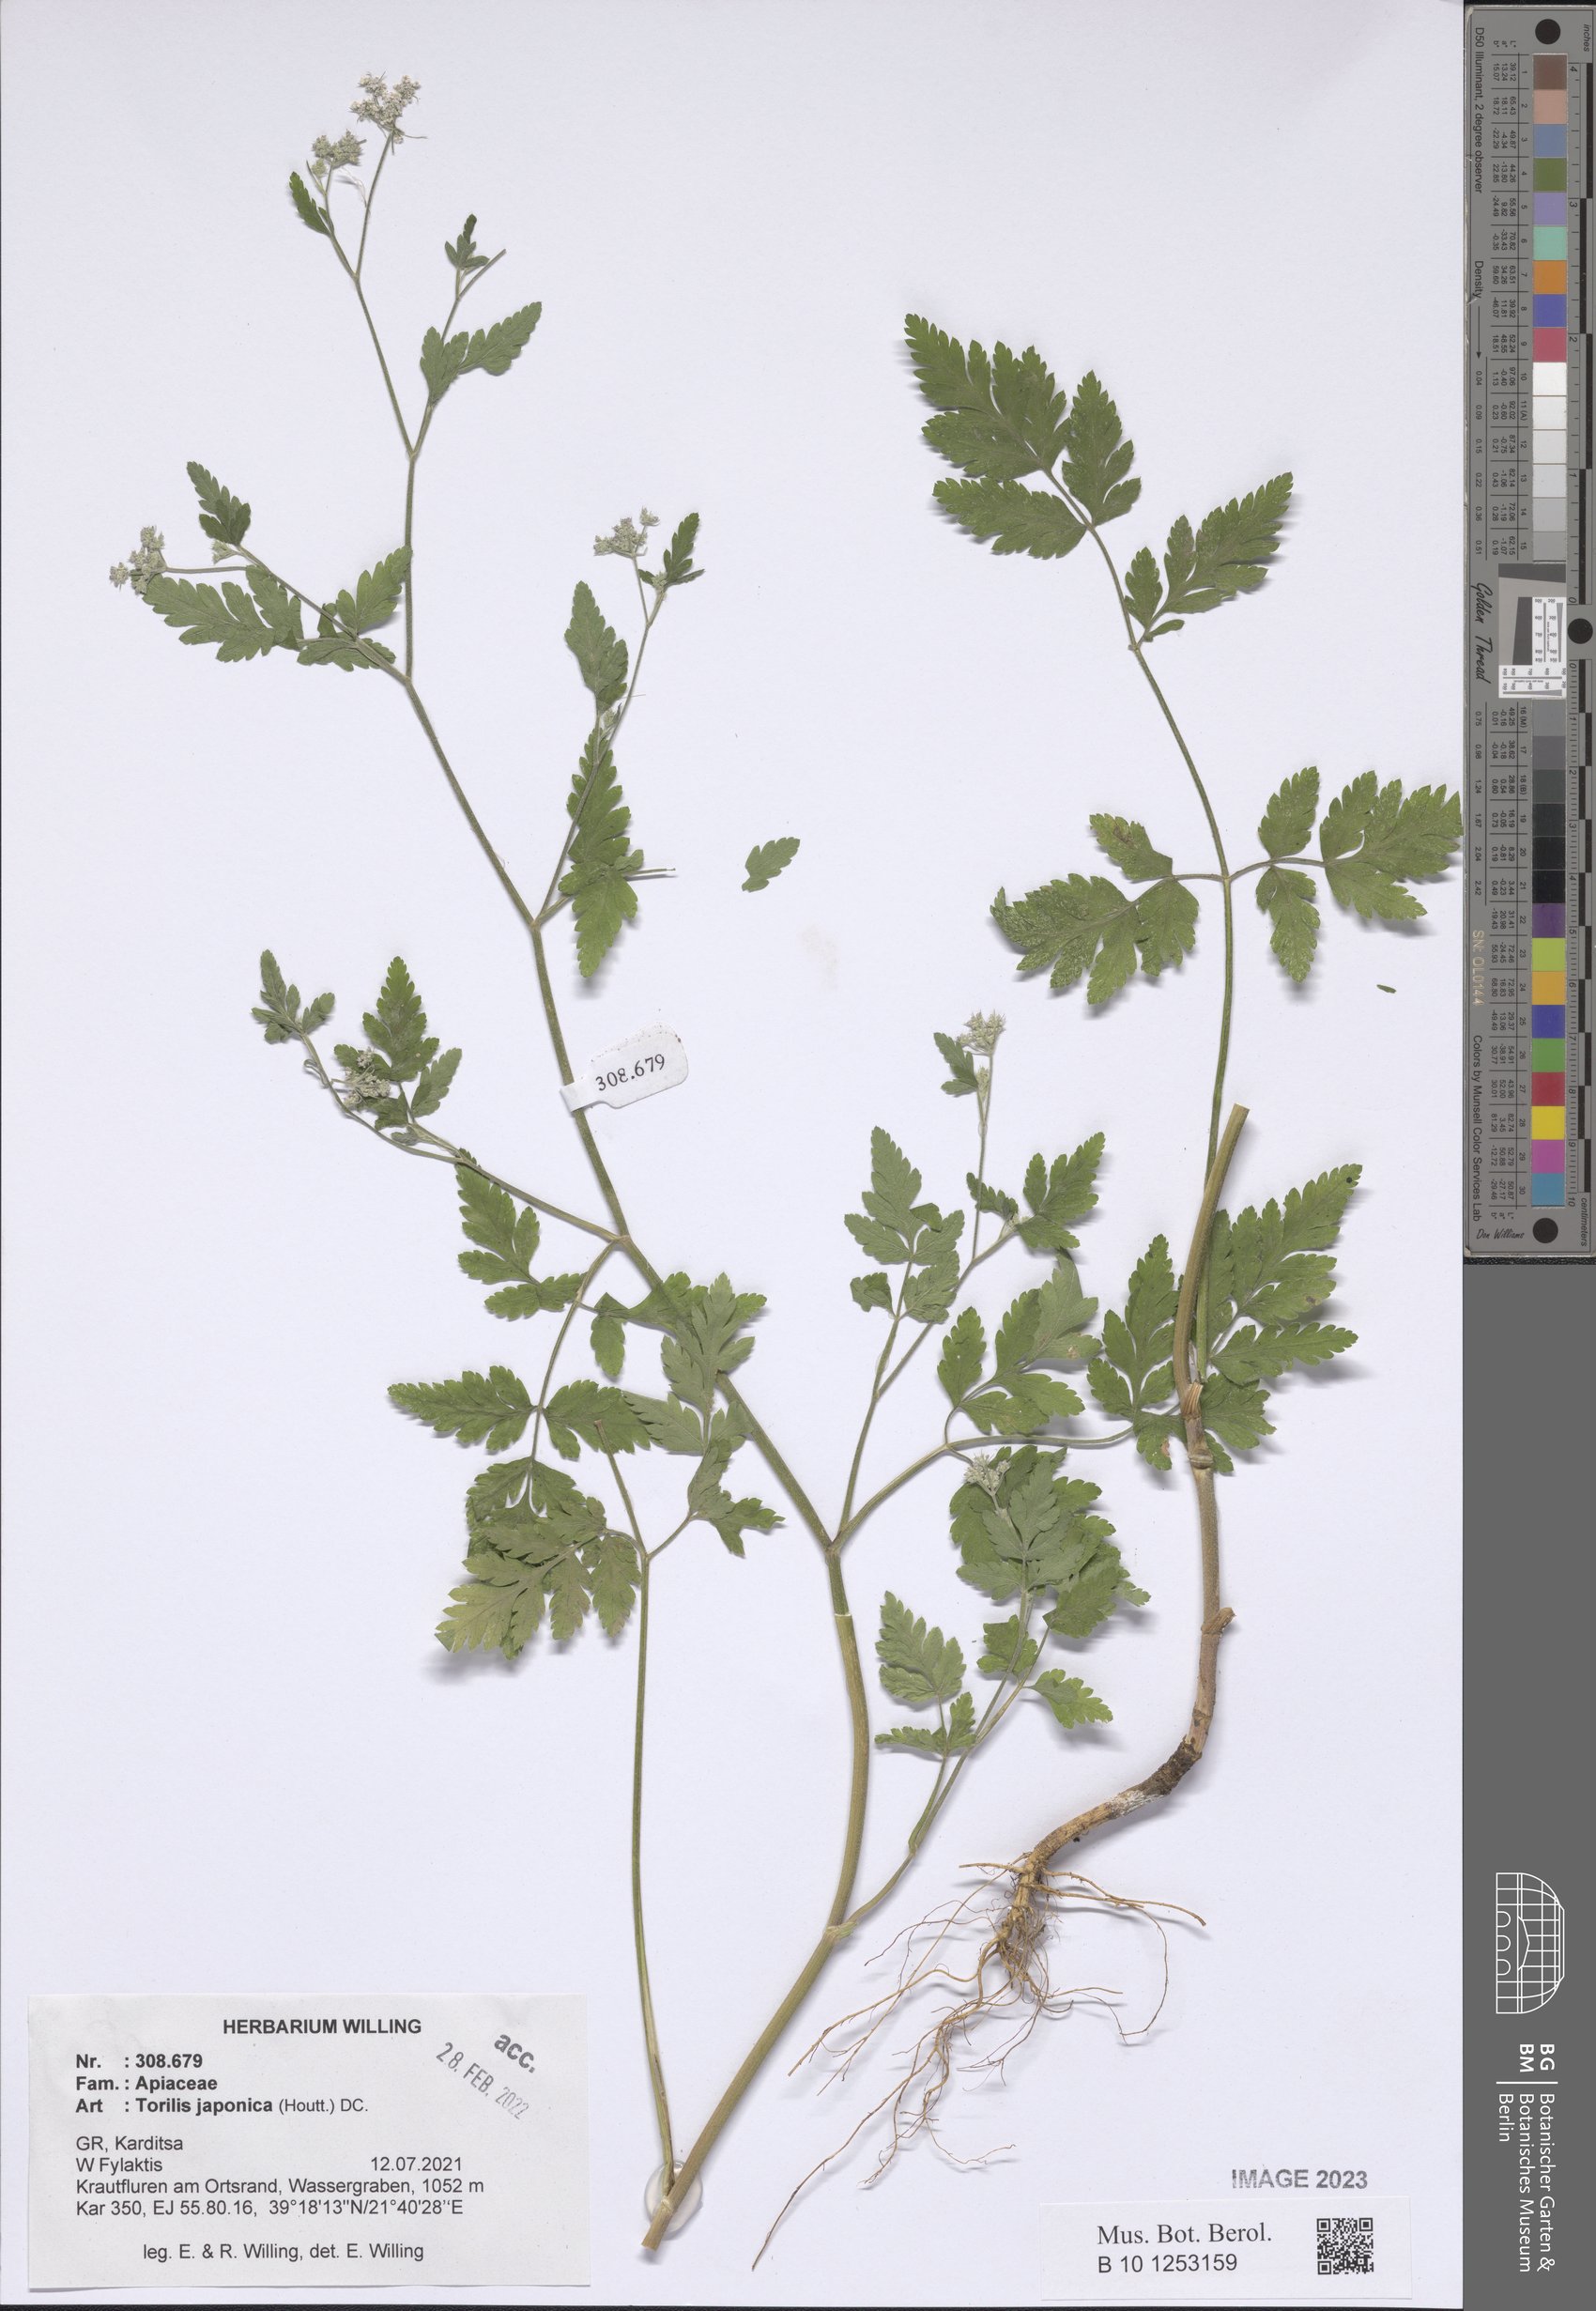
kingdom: Plantae
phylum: Tracheophyta
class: Magnoliopsida
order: Apiales
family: Apiaceae
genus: Torilis
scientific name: Torilis japonica
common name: Upright hedge-parsley
